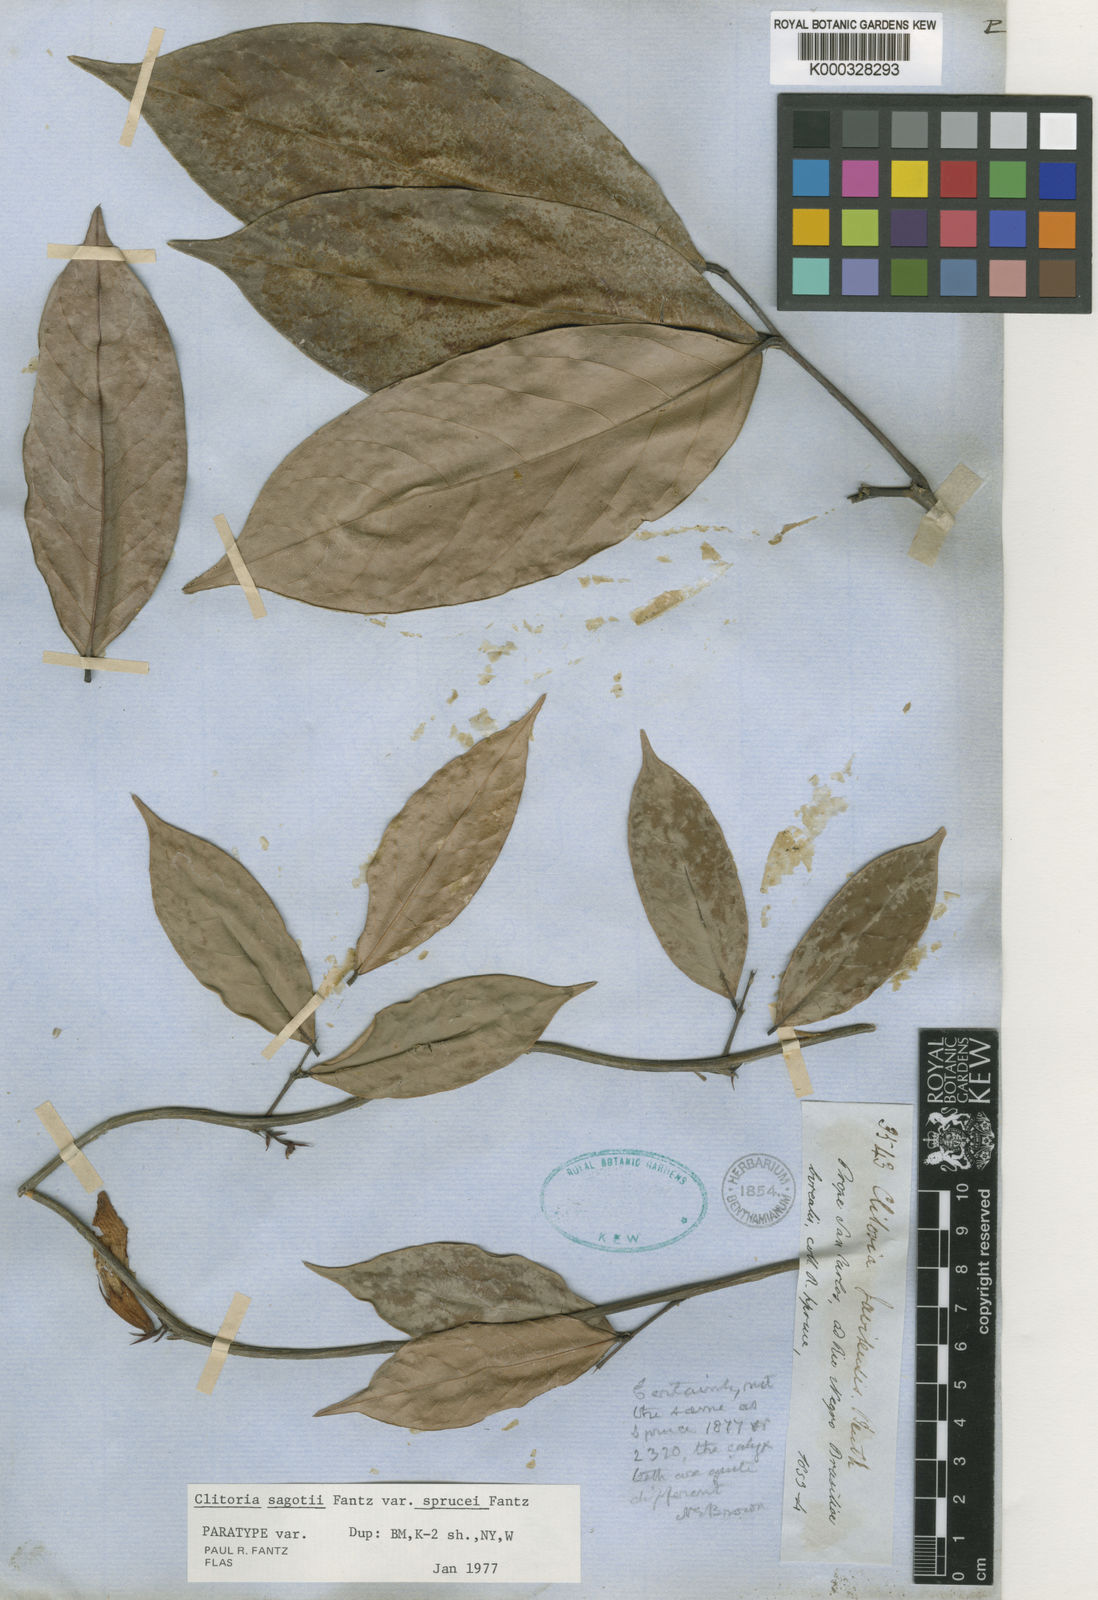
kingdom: Plantae
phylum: Tracheophyta
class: Magnoliopsida
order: Fabales
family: Fabaceae
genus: Clitoria
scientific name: Clitoria sagotii
